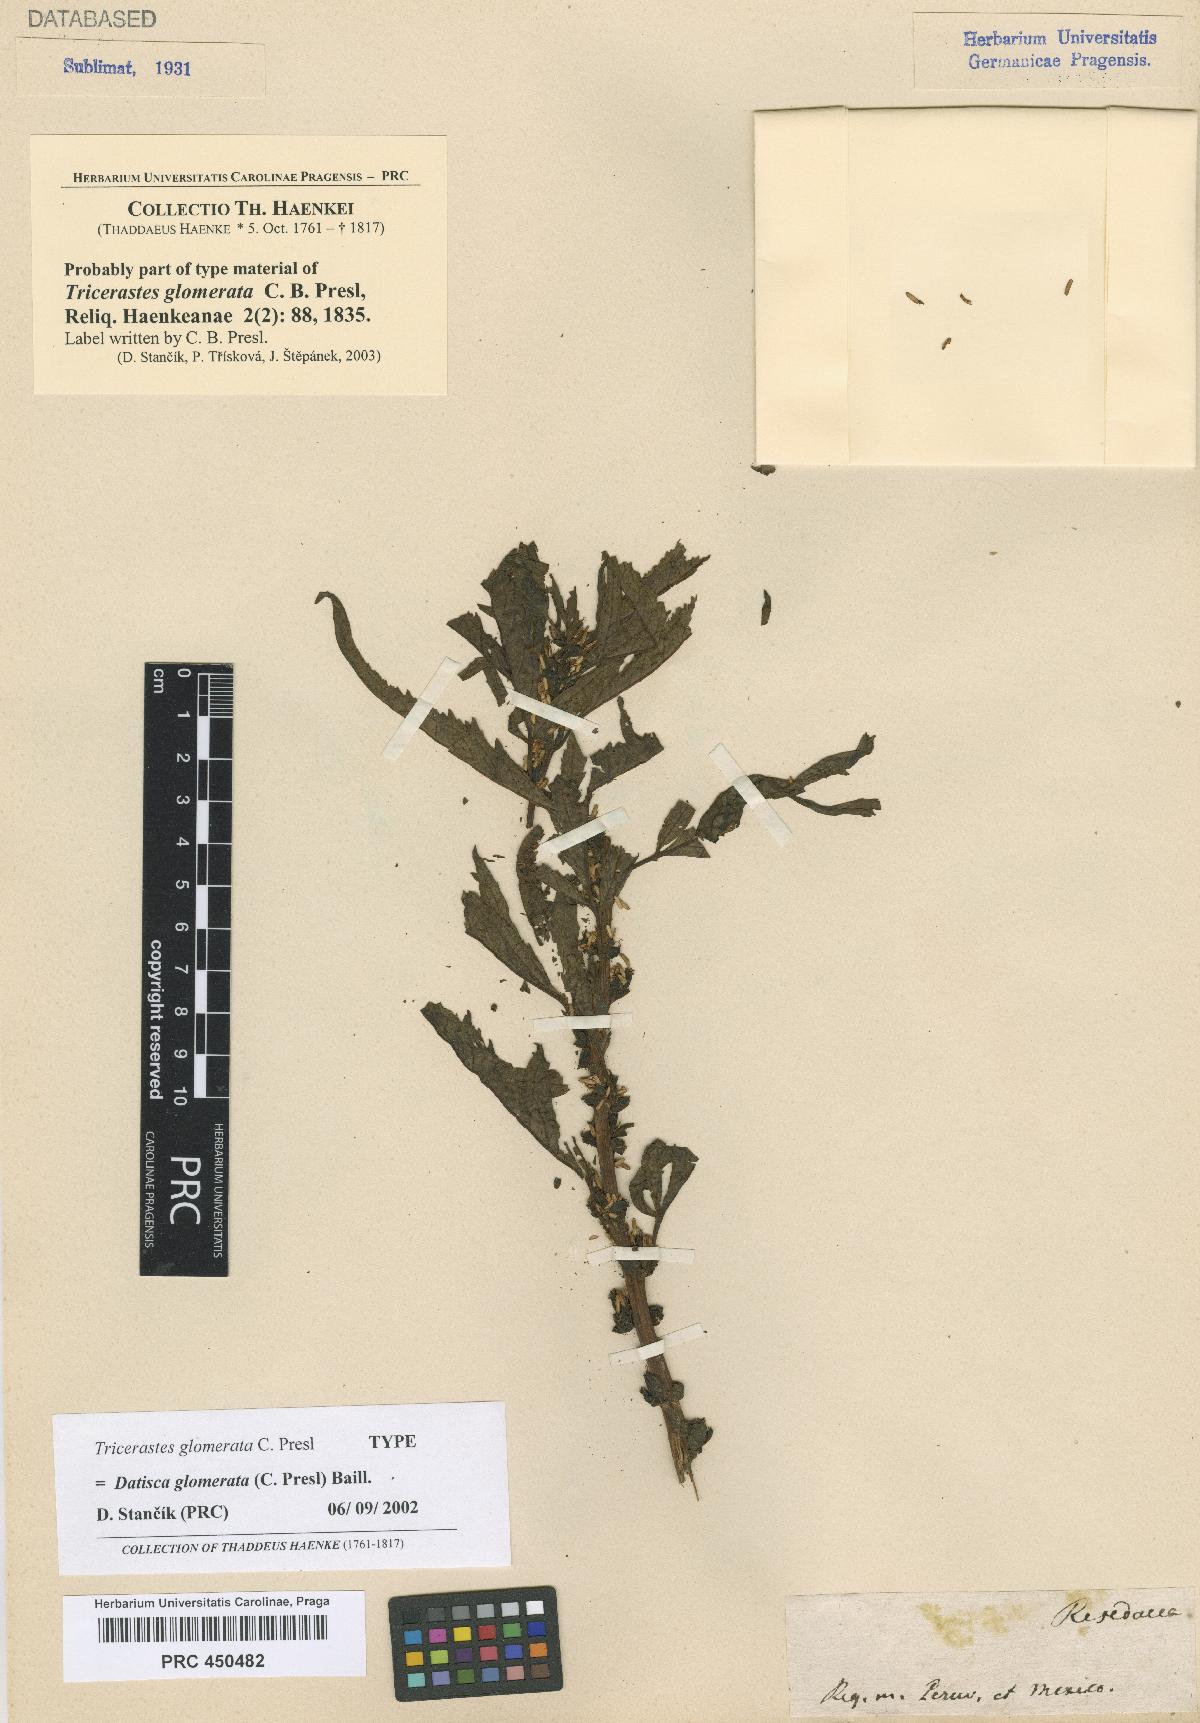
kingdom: Plantae
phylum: Tracheophyta
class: Magnoliopsida
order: Cucurbitales
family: Datiscaceae
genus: Datisca
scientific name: Datisca glomerata
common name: Durango-root
